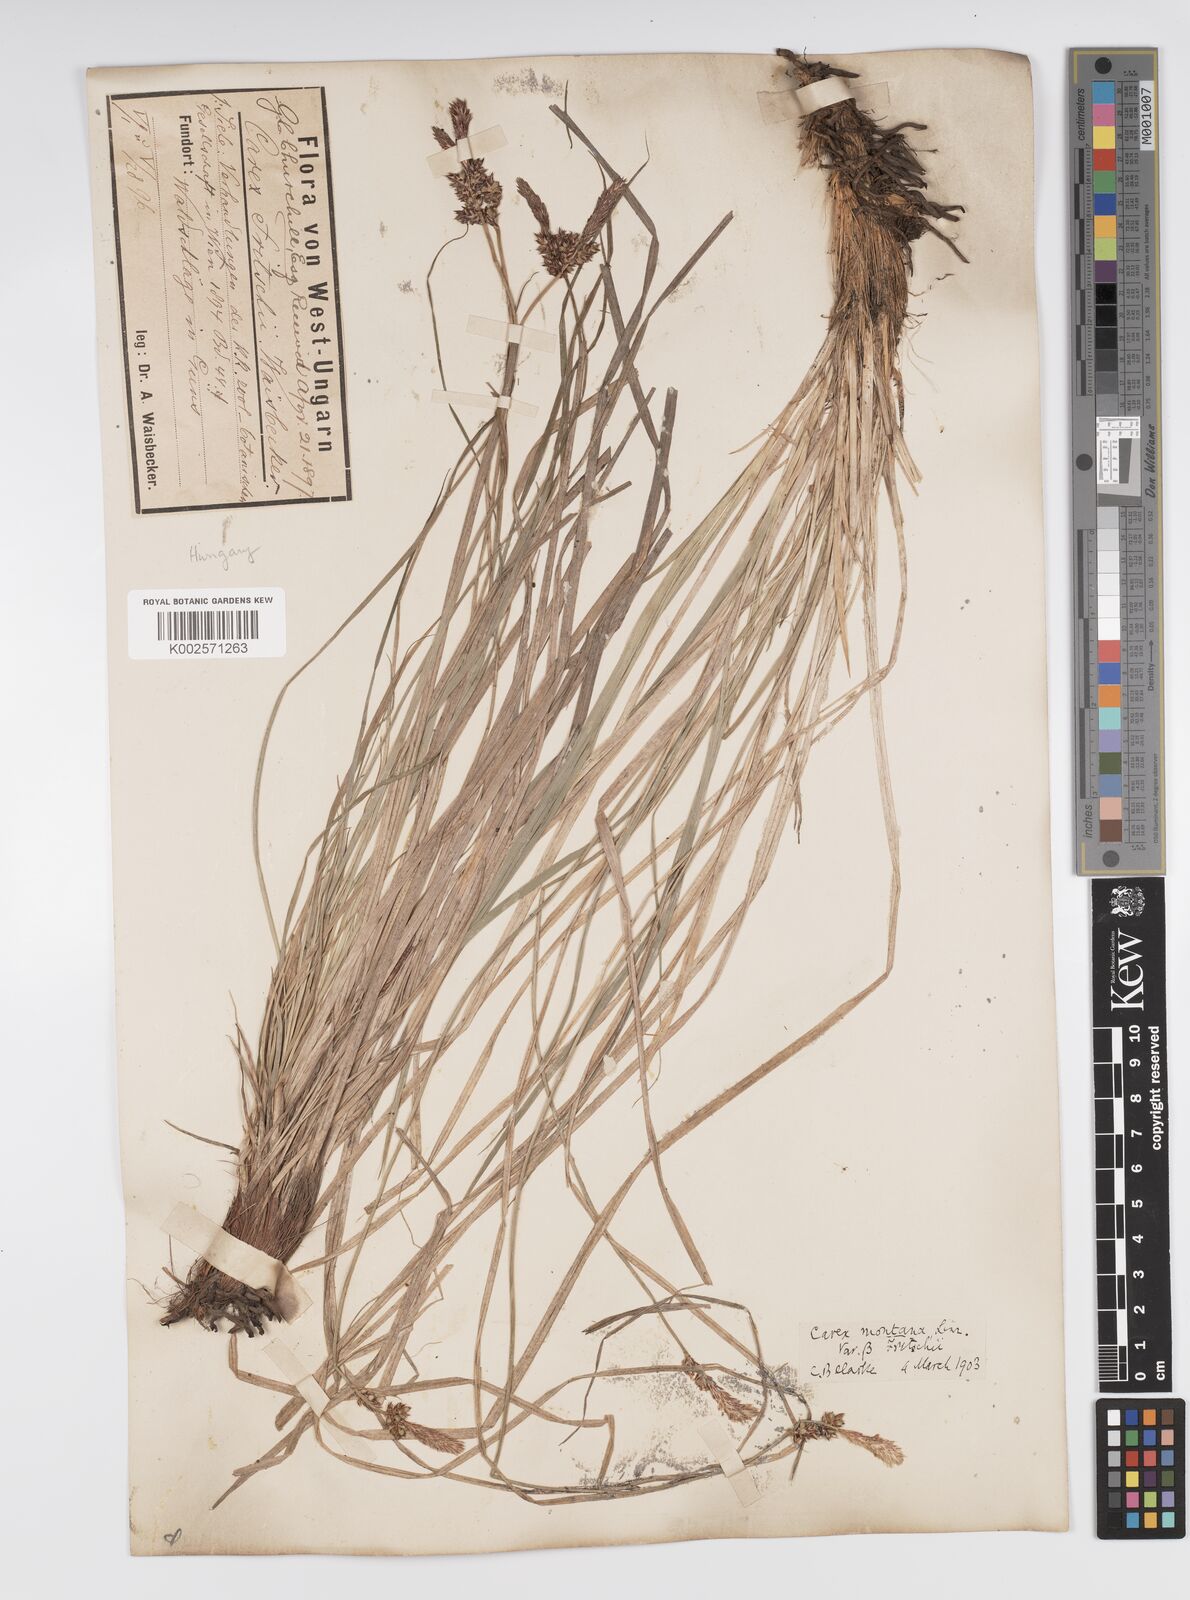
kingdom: Plantae
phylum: Tracheophyta
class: Liliopsida
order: Poales
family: Cyperaceae
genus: Carex
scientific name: Carex fritschii
